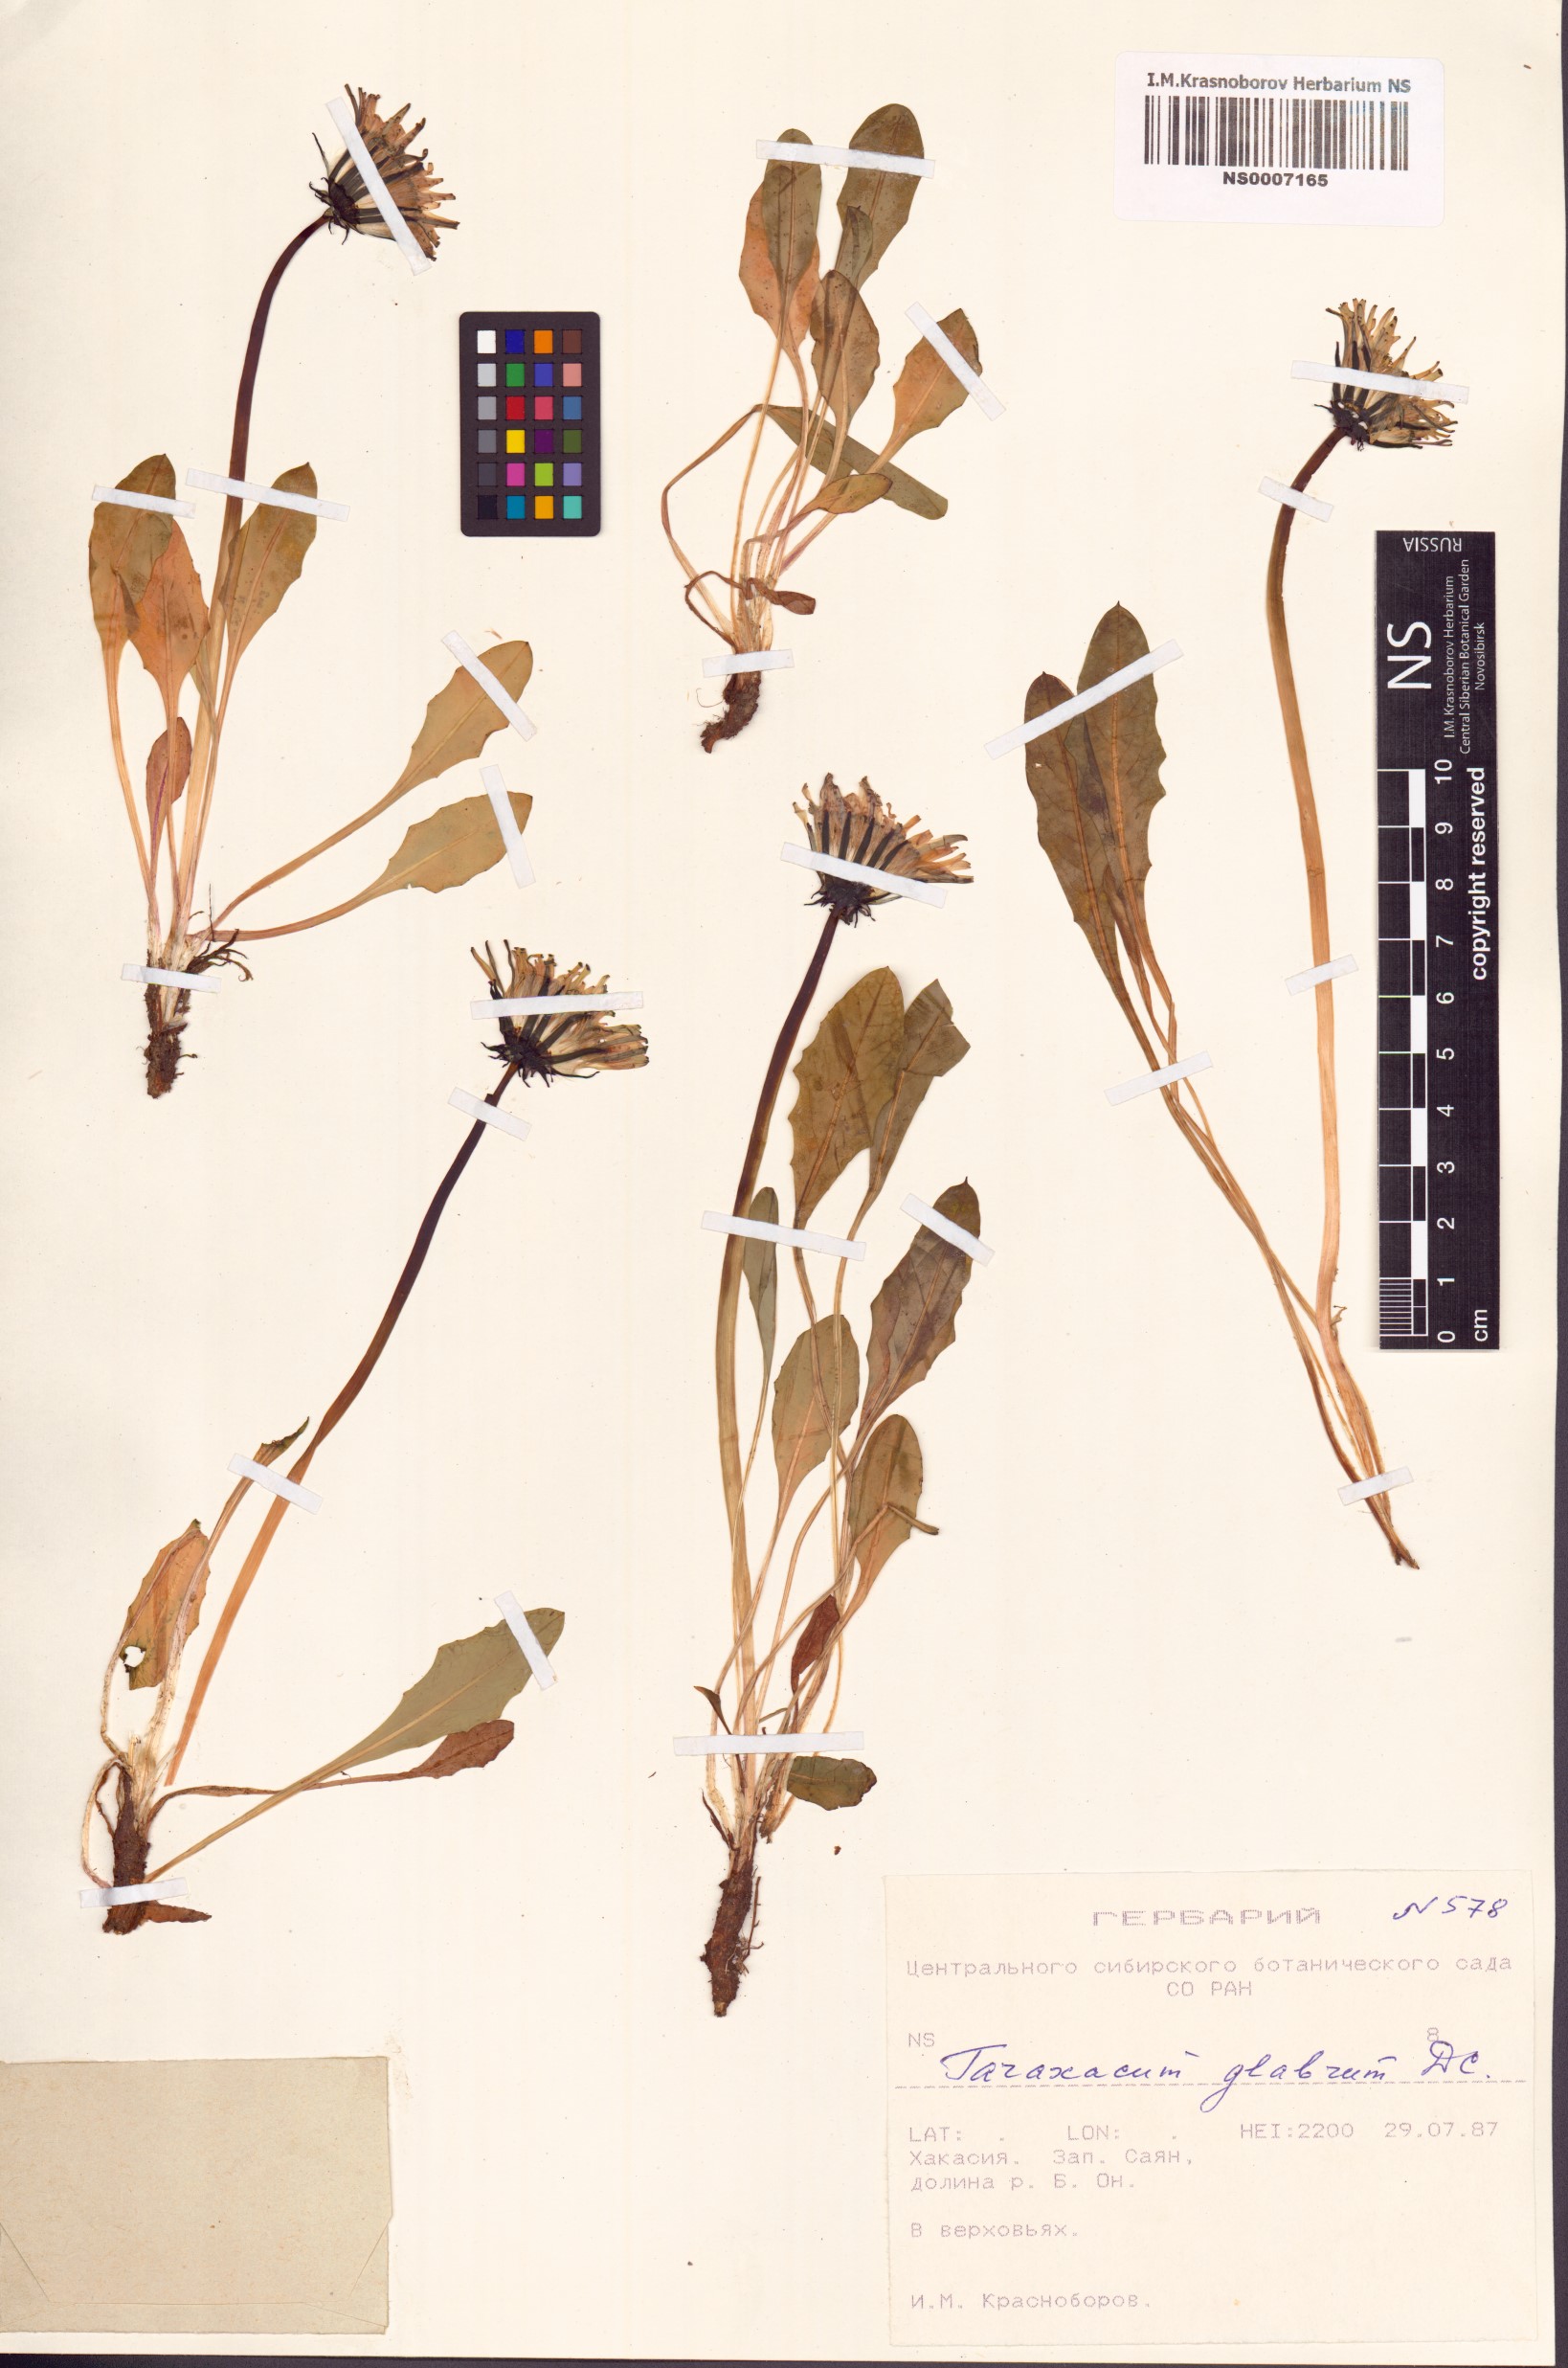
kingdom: Plantae
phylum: Tracheophyta
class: Magnoliopsida
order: Asterales
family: Asteraceae
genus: Taraxacum
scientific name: Taraxacum glabrum
